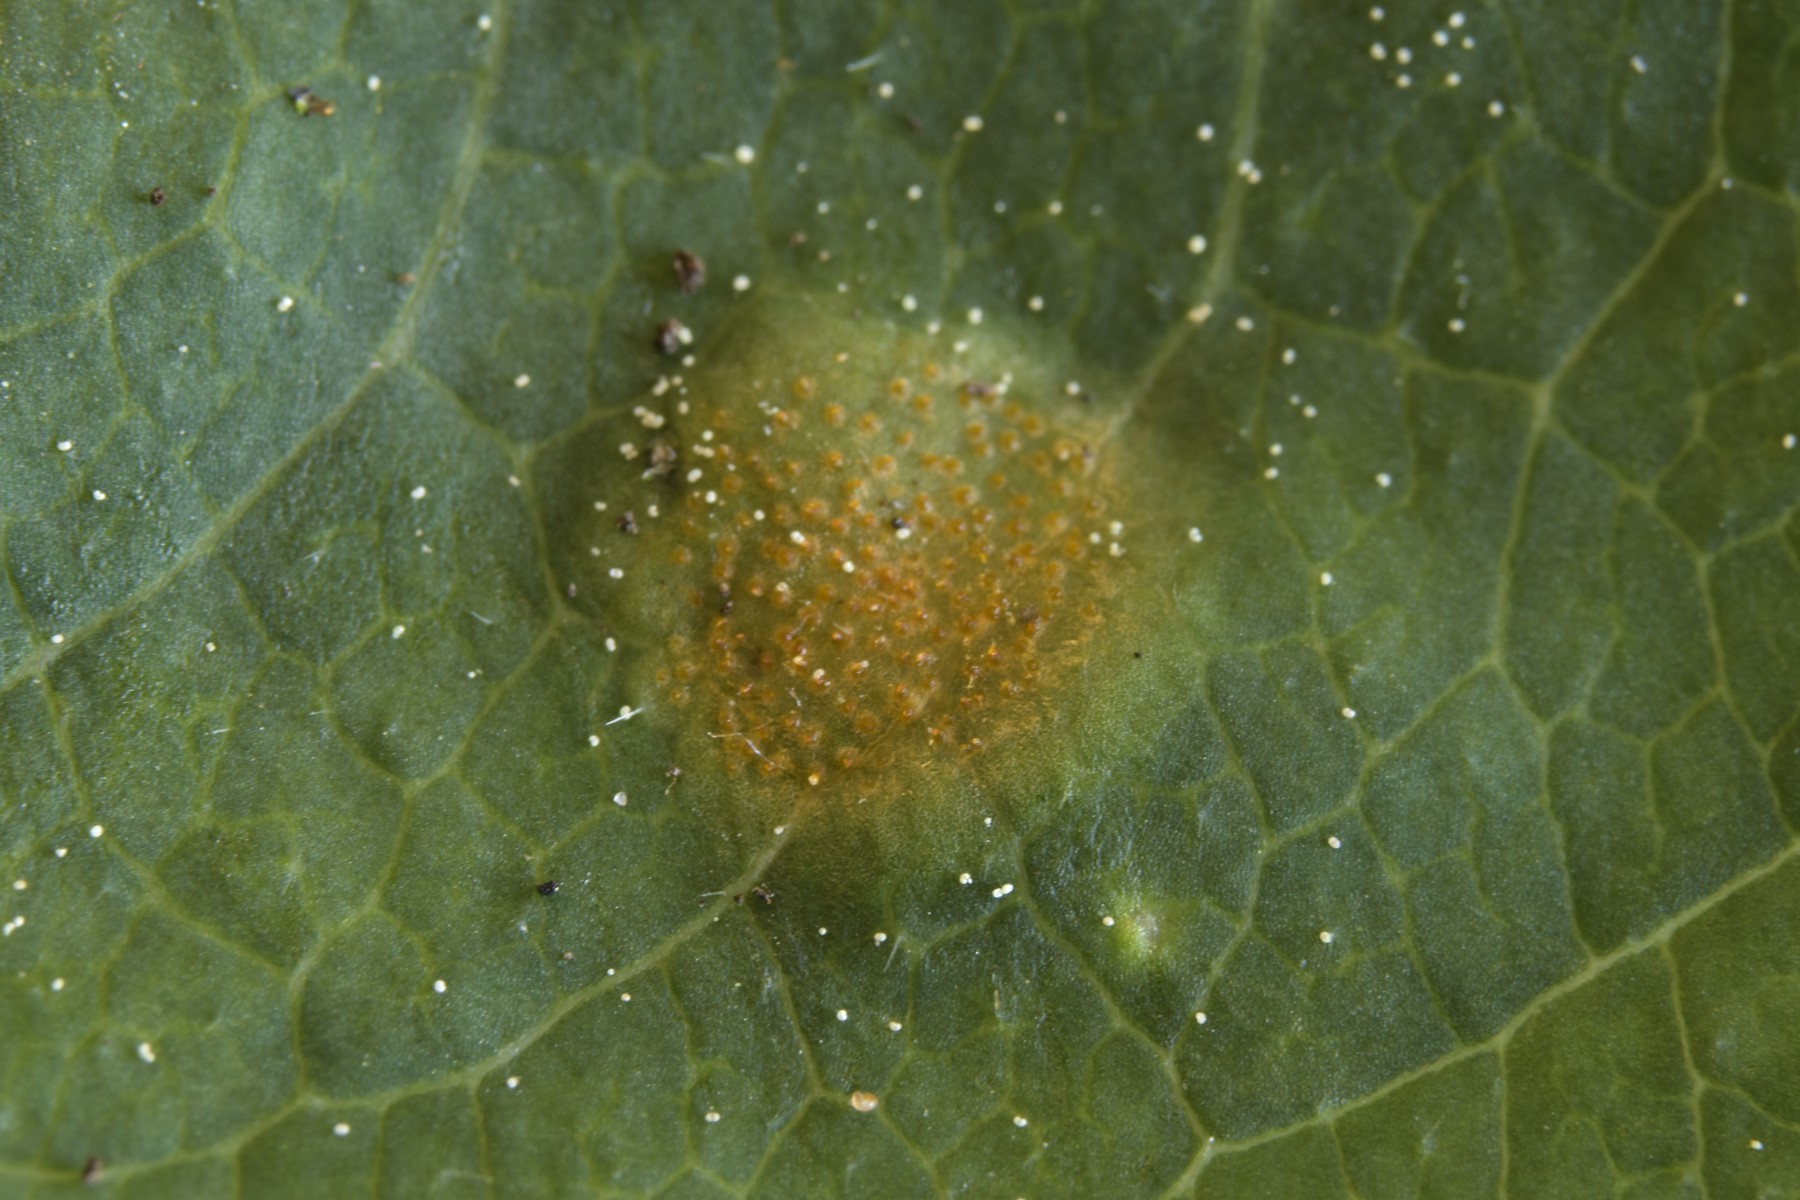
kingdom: Fungi
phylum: Basidiomycota
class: Pucciniomycetes
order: Pucciniales
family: Pucciniaceae
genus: Puccinia
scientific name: Puccinia festucae
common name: gedeblad-tvecellerust
